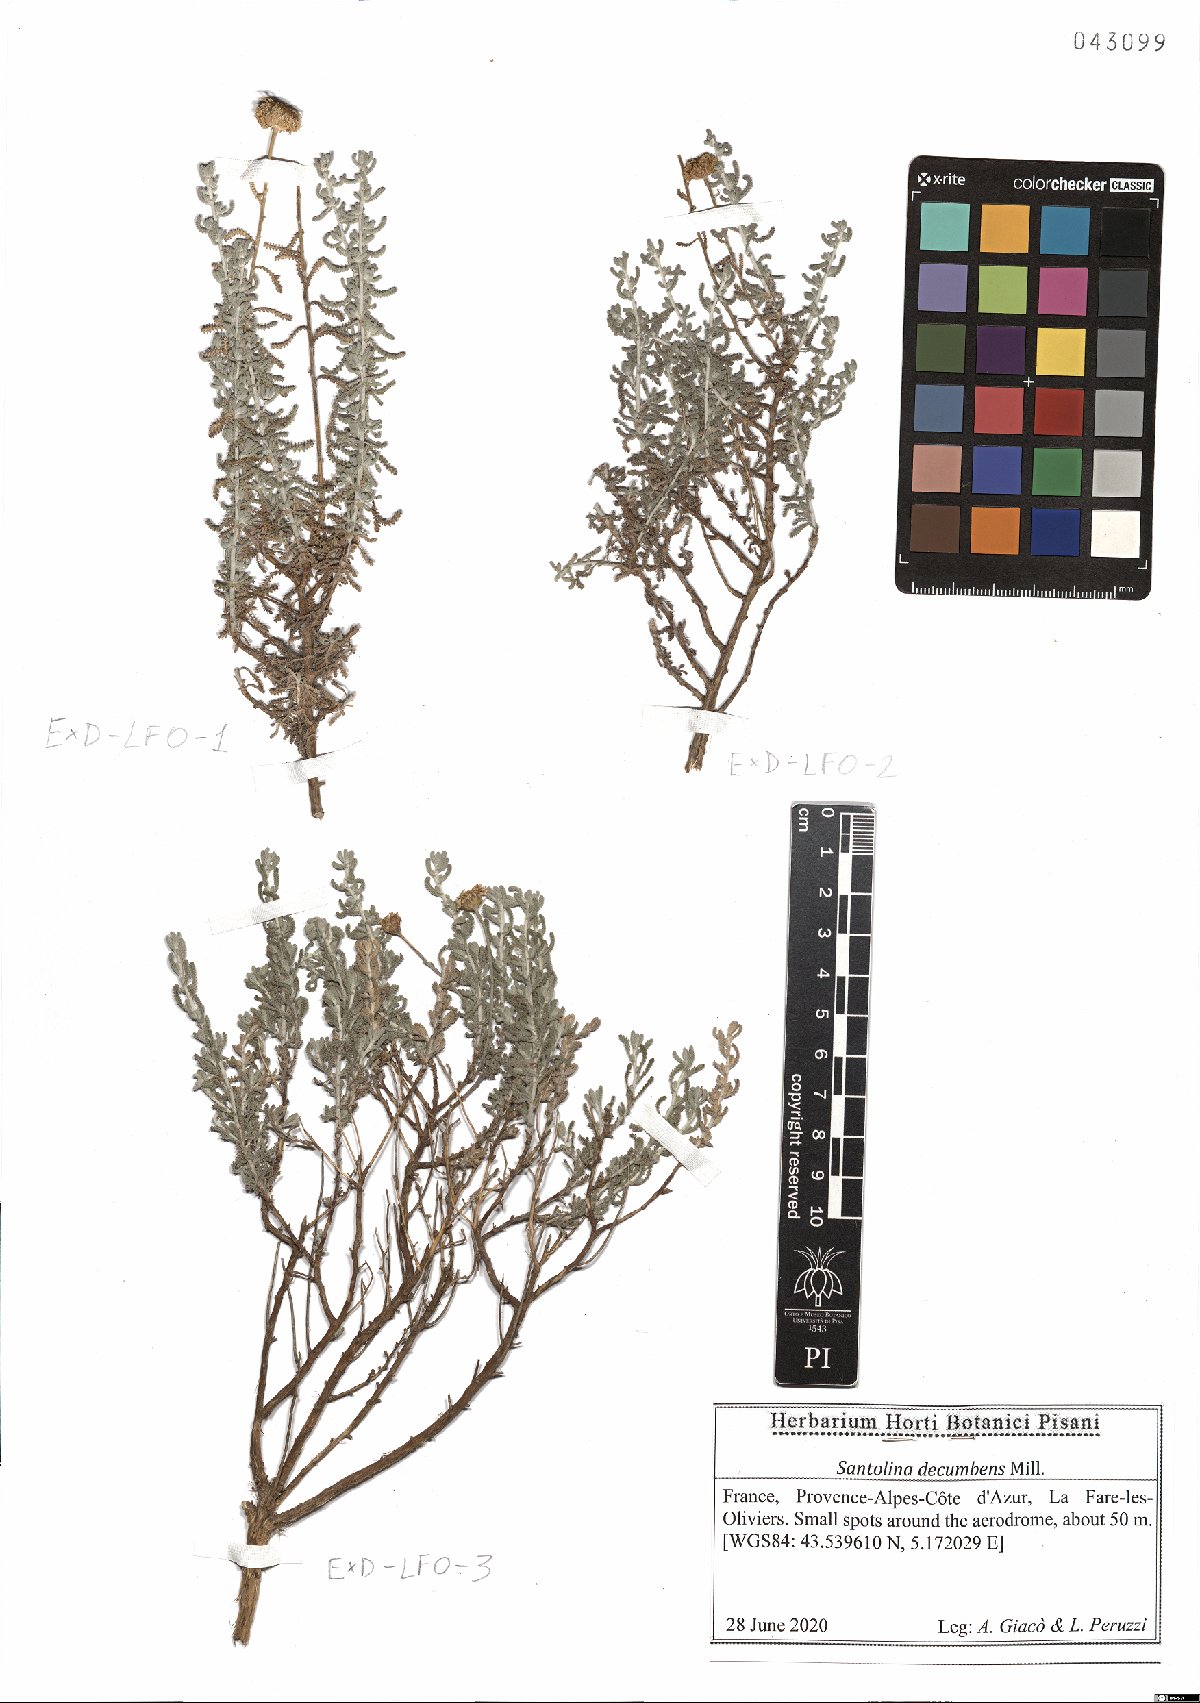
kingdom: Plantae
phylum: Tracheophyta
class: Magnoliopsida
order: Asterales
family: Asteraceae
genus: Santolina
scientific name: Santolina decumbens
